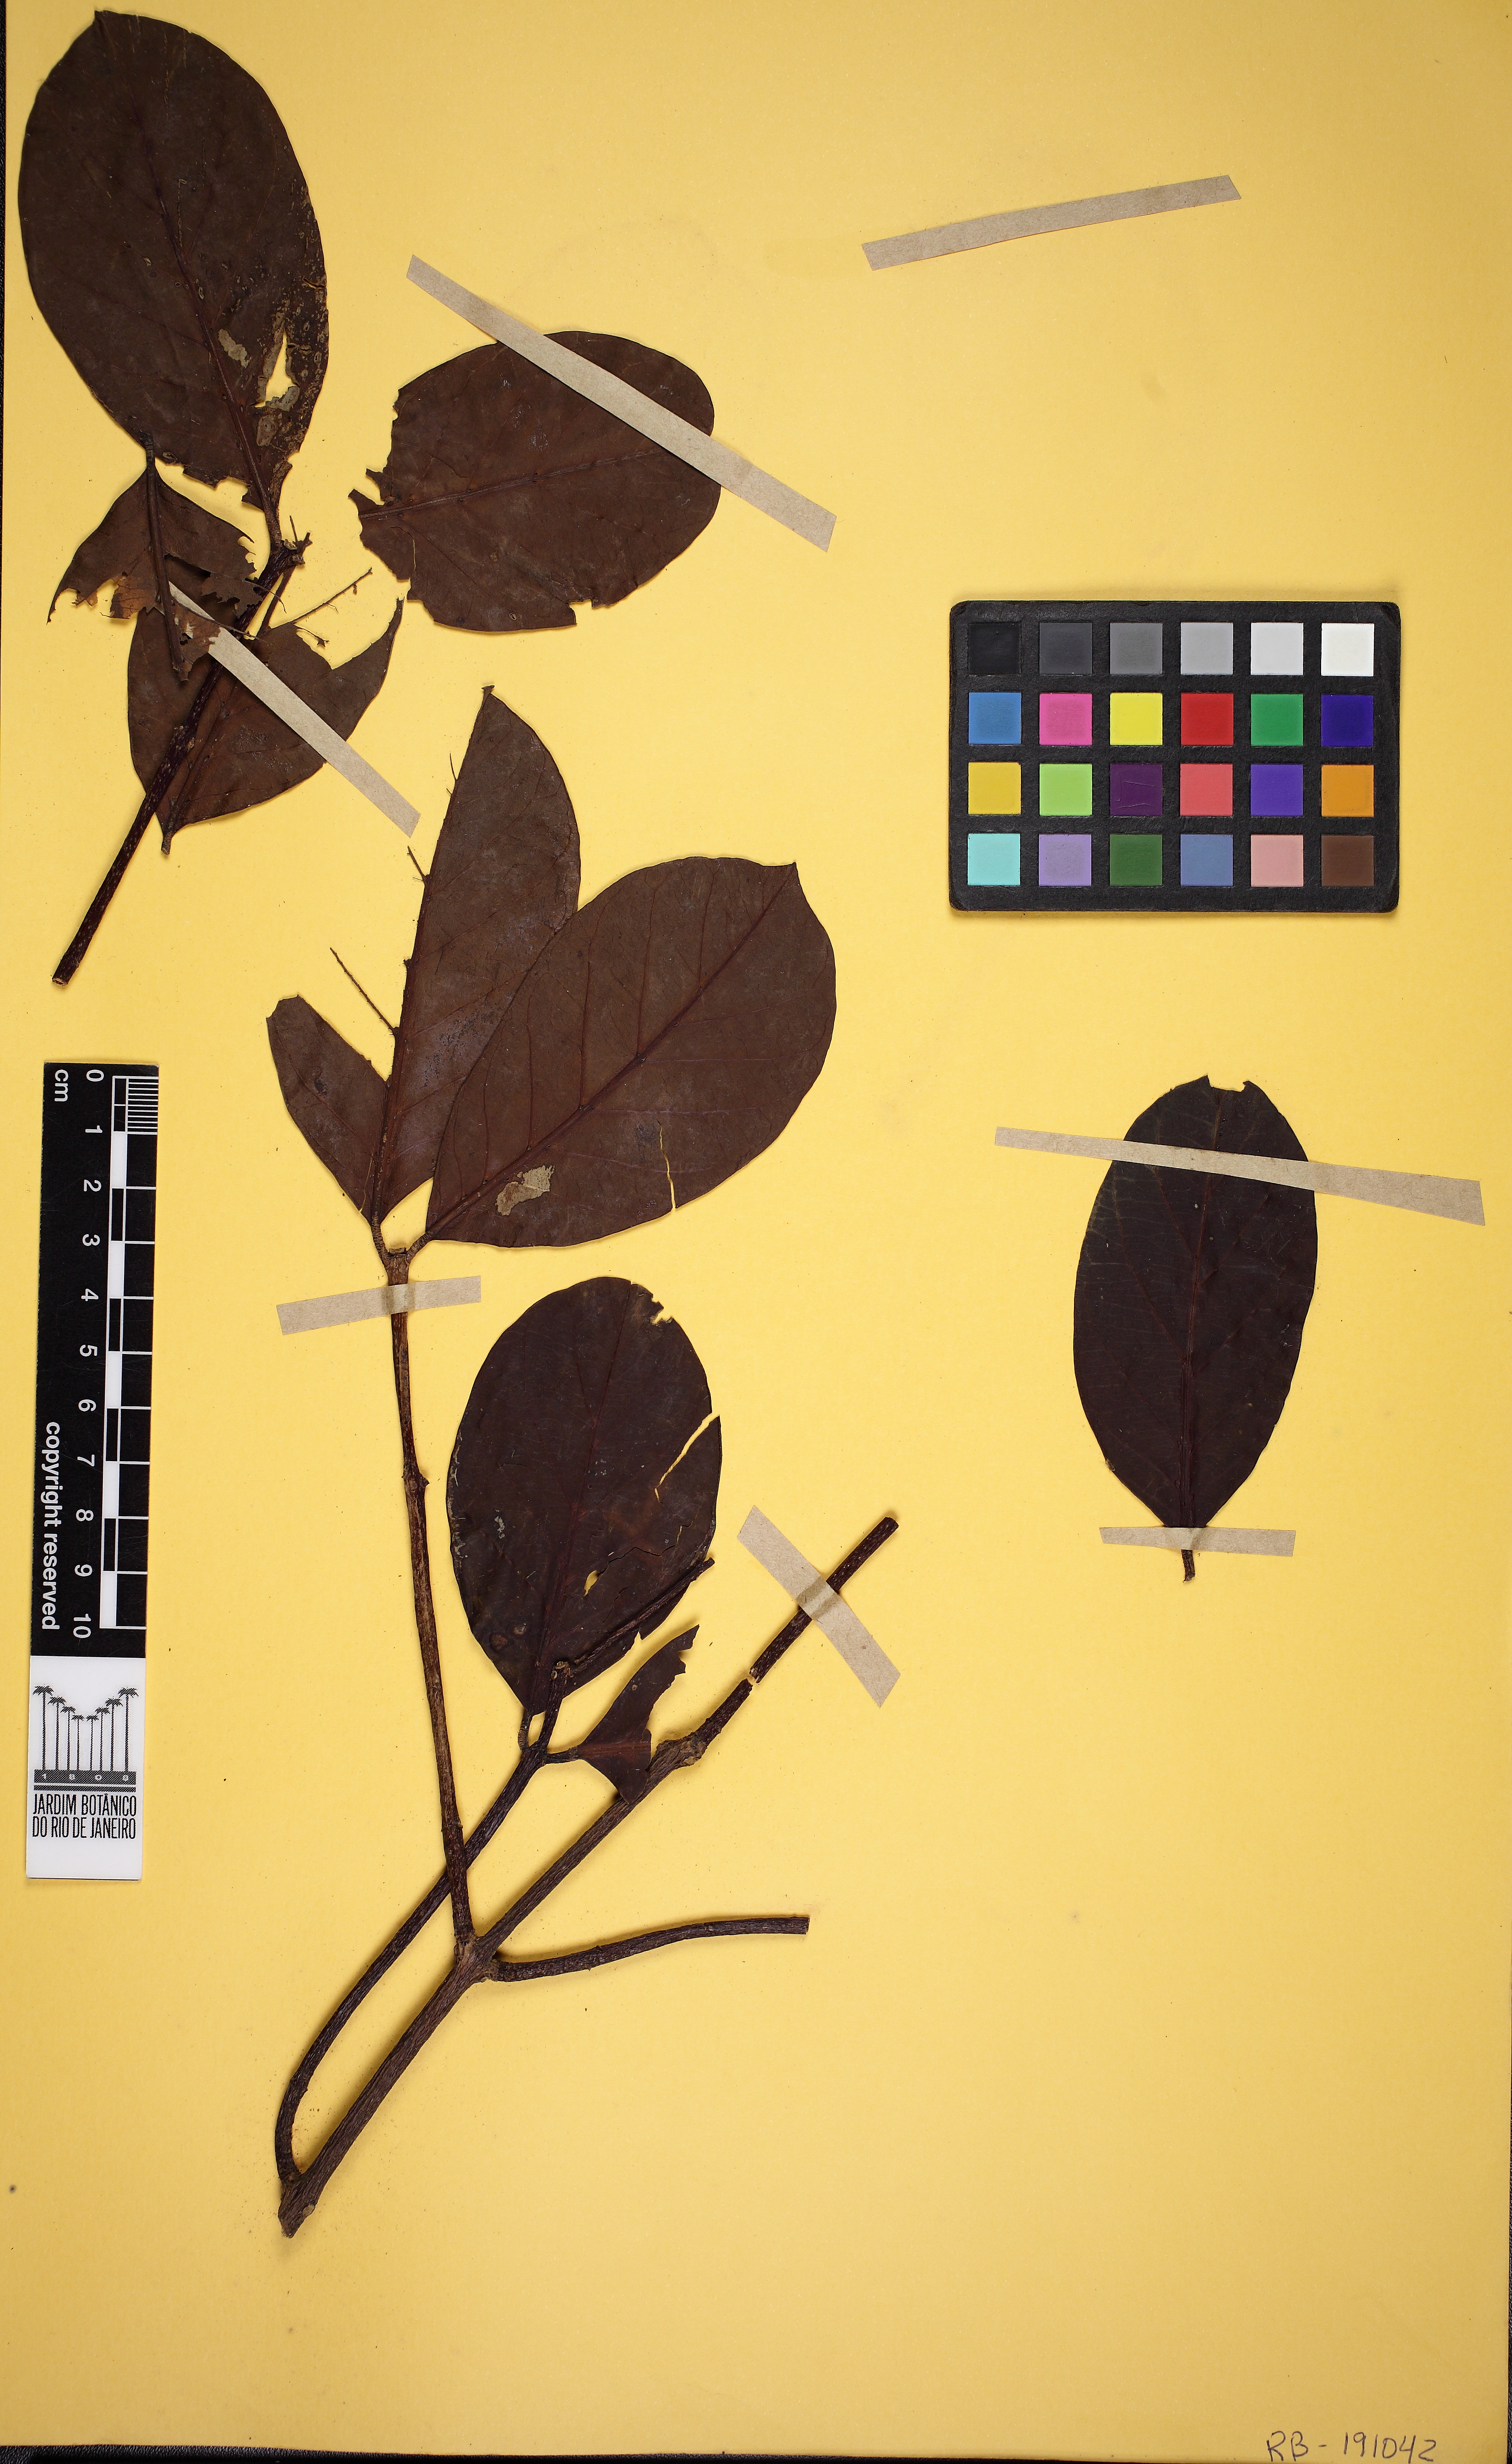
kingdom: Plantae
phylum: Tracheophyta
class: Magnoliopsida
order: Gentianales
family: Apocynaceae
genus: Forsteronia
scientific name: Forsteronia refracta
